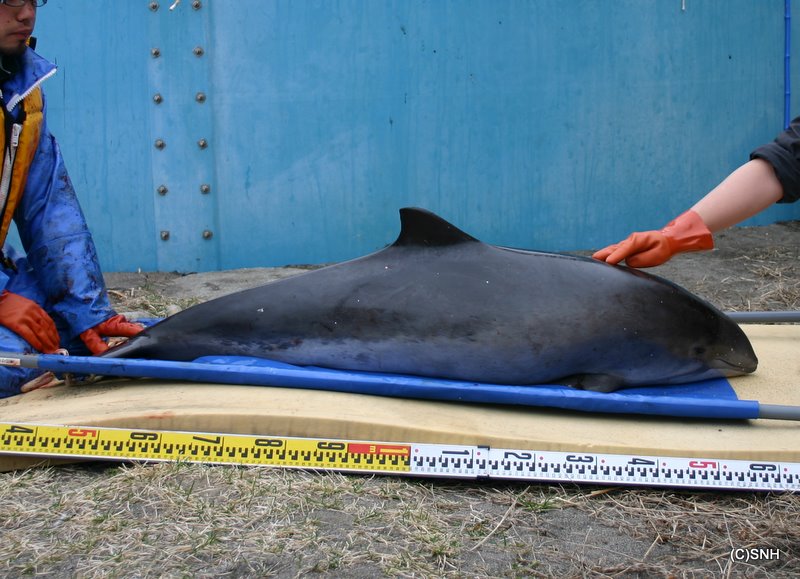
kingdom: Animalia
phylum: Chordata
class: Mammalia
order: Cetacea
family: Phocoenidae
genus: Phocoena
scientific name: Phocoena phocoena
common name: Harbour porpoise
